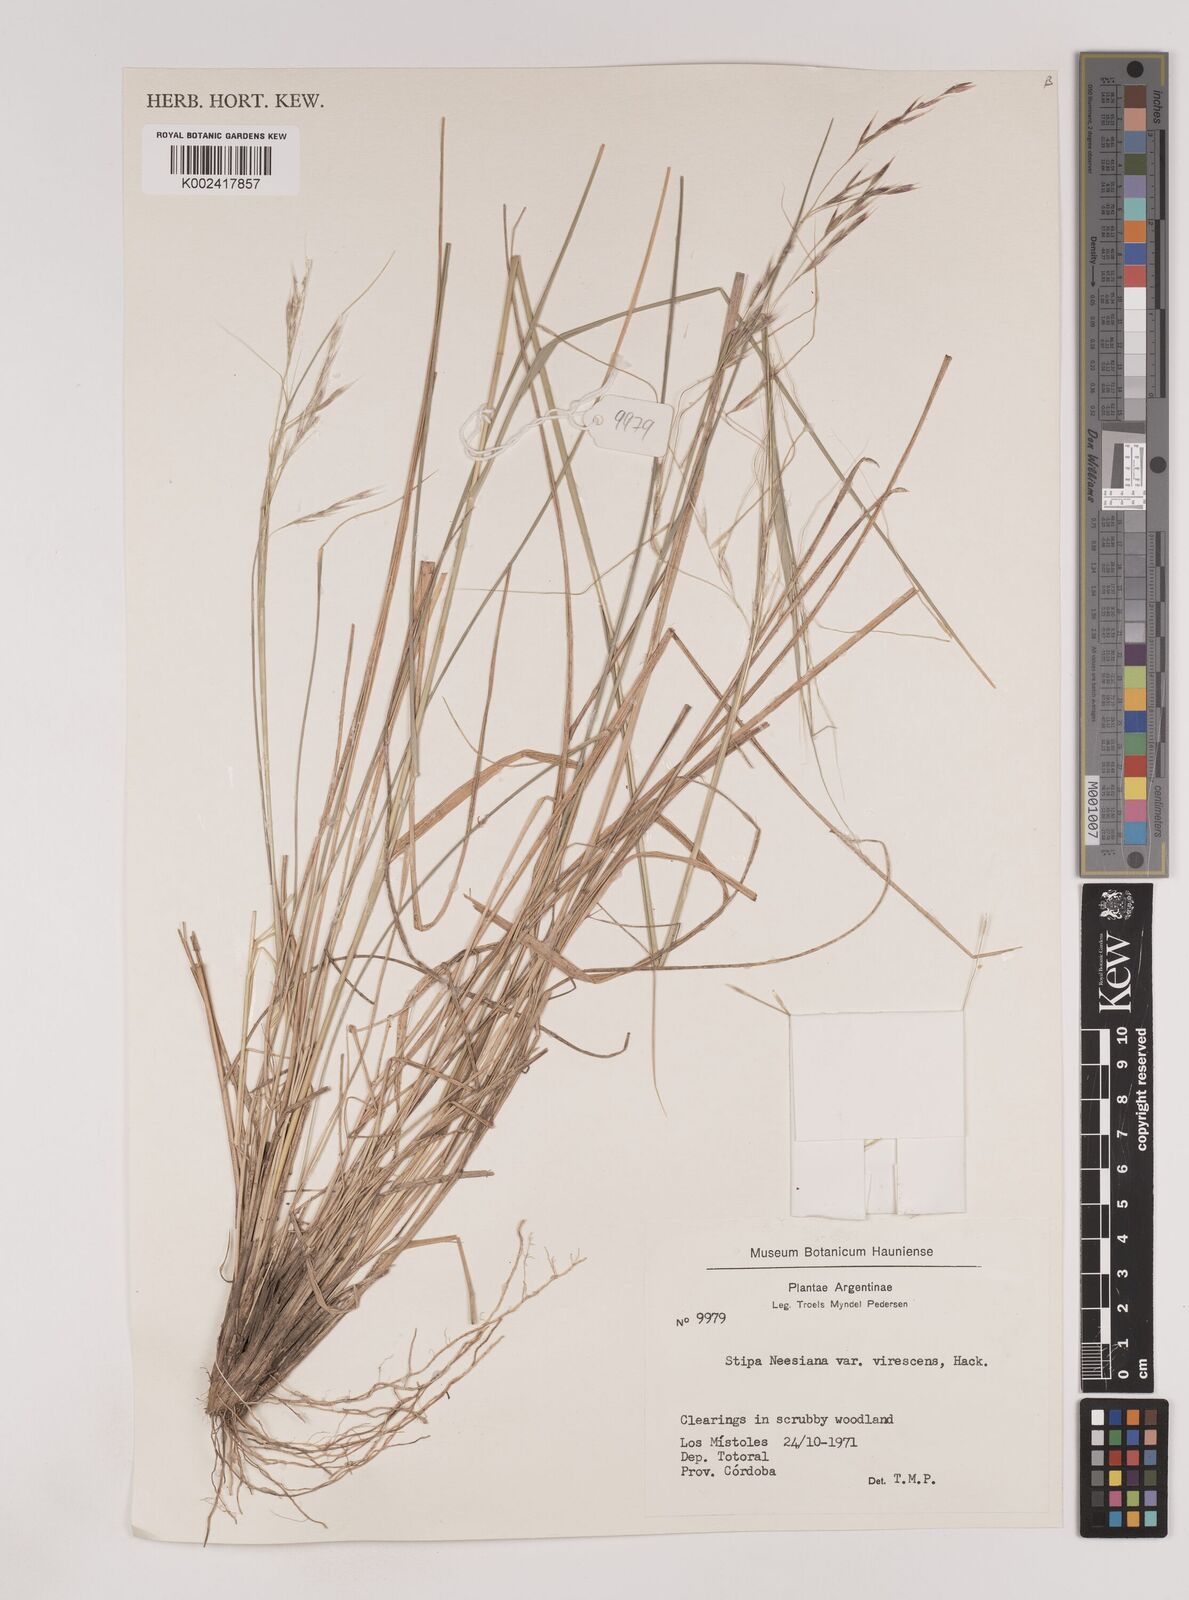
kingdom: Plantae
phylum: Tracheophyta
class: Liliopsida
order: Poales
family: Poaceae
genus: Nassella
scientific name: Nassella neesiana
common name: American needle-grass
